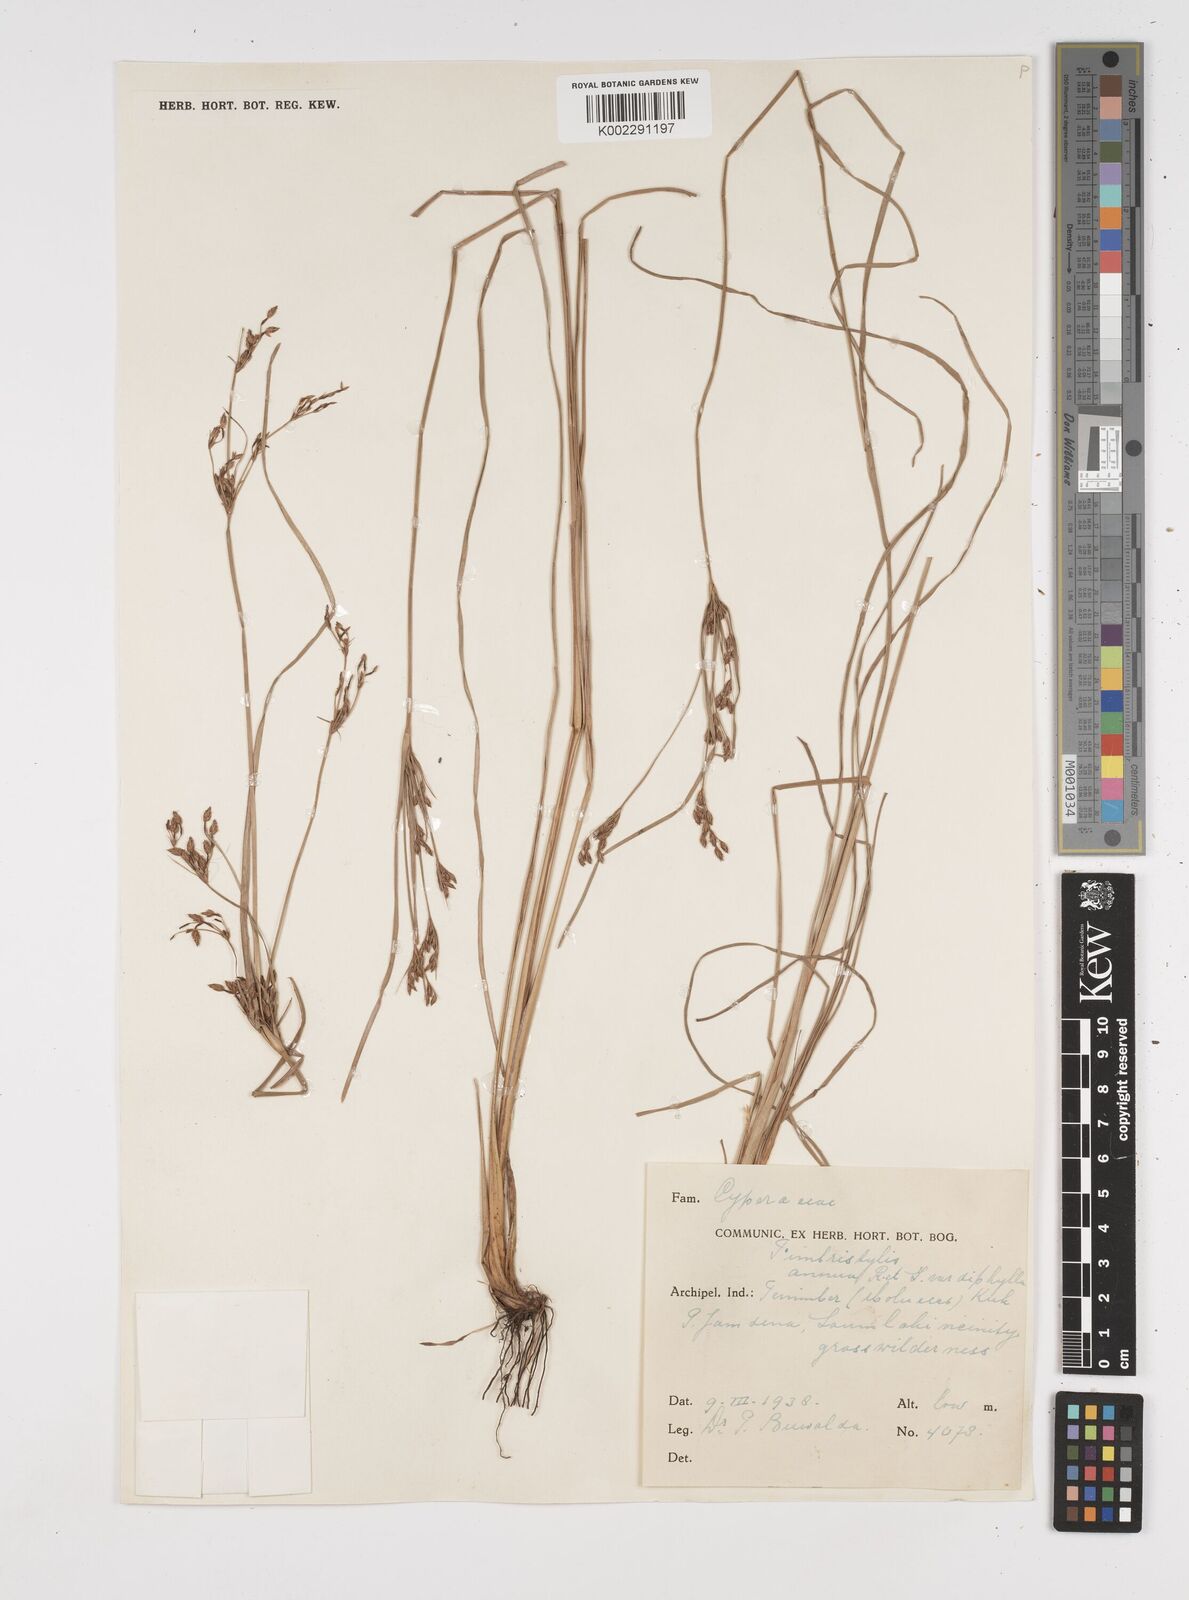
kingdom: Plantae
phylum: Tracheophyta
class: Liliopsida
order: Poales
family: Cyperaceae
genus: Fimbristylis
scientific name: Fimbristylis dichotoma
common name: Forked fimbry
